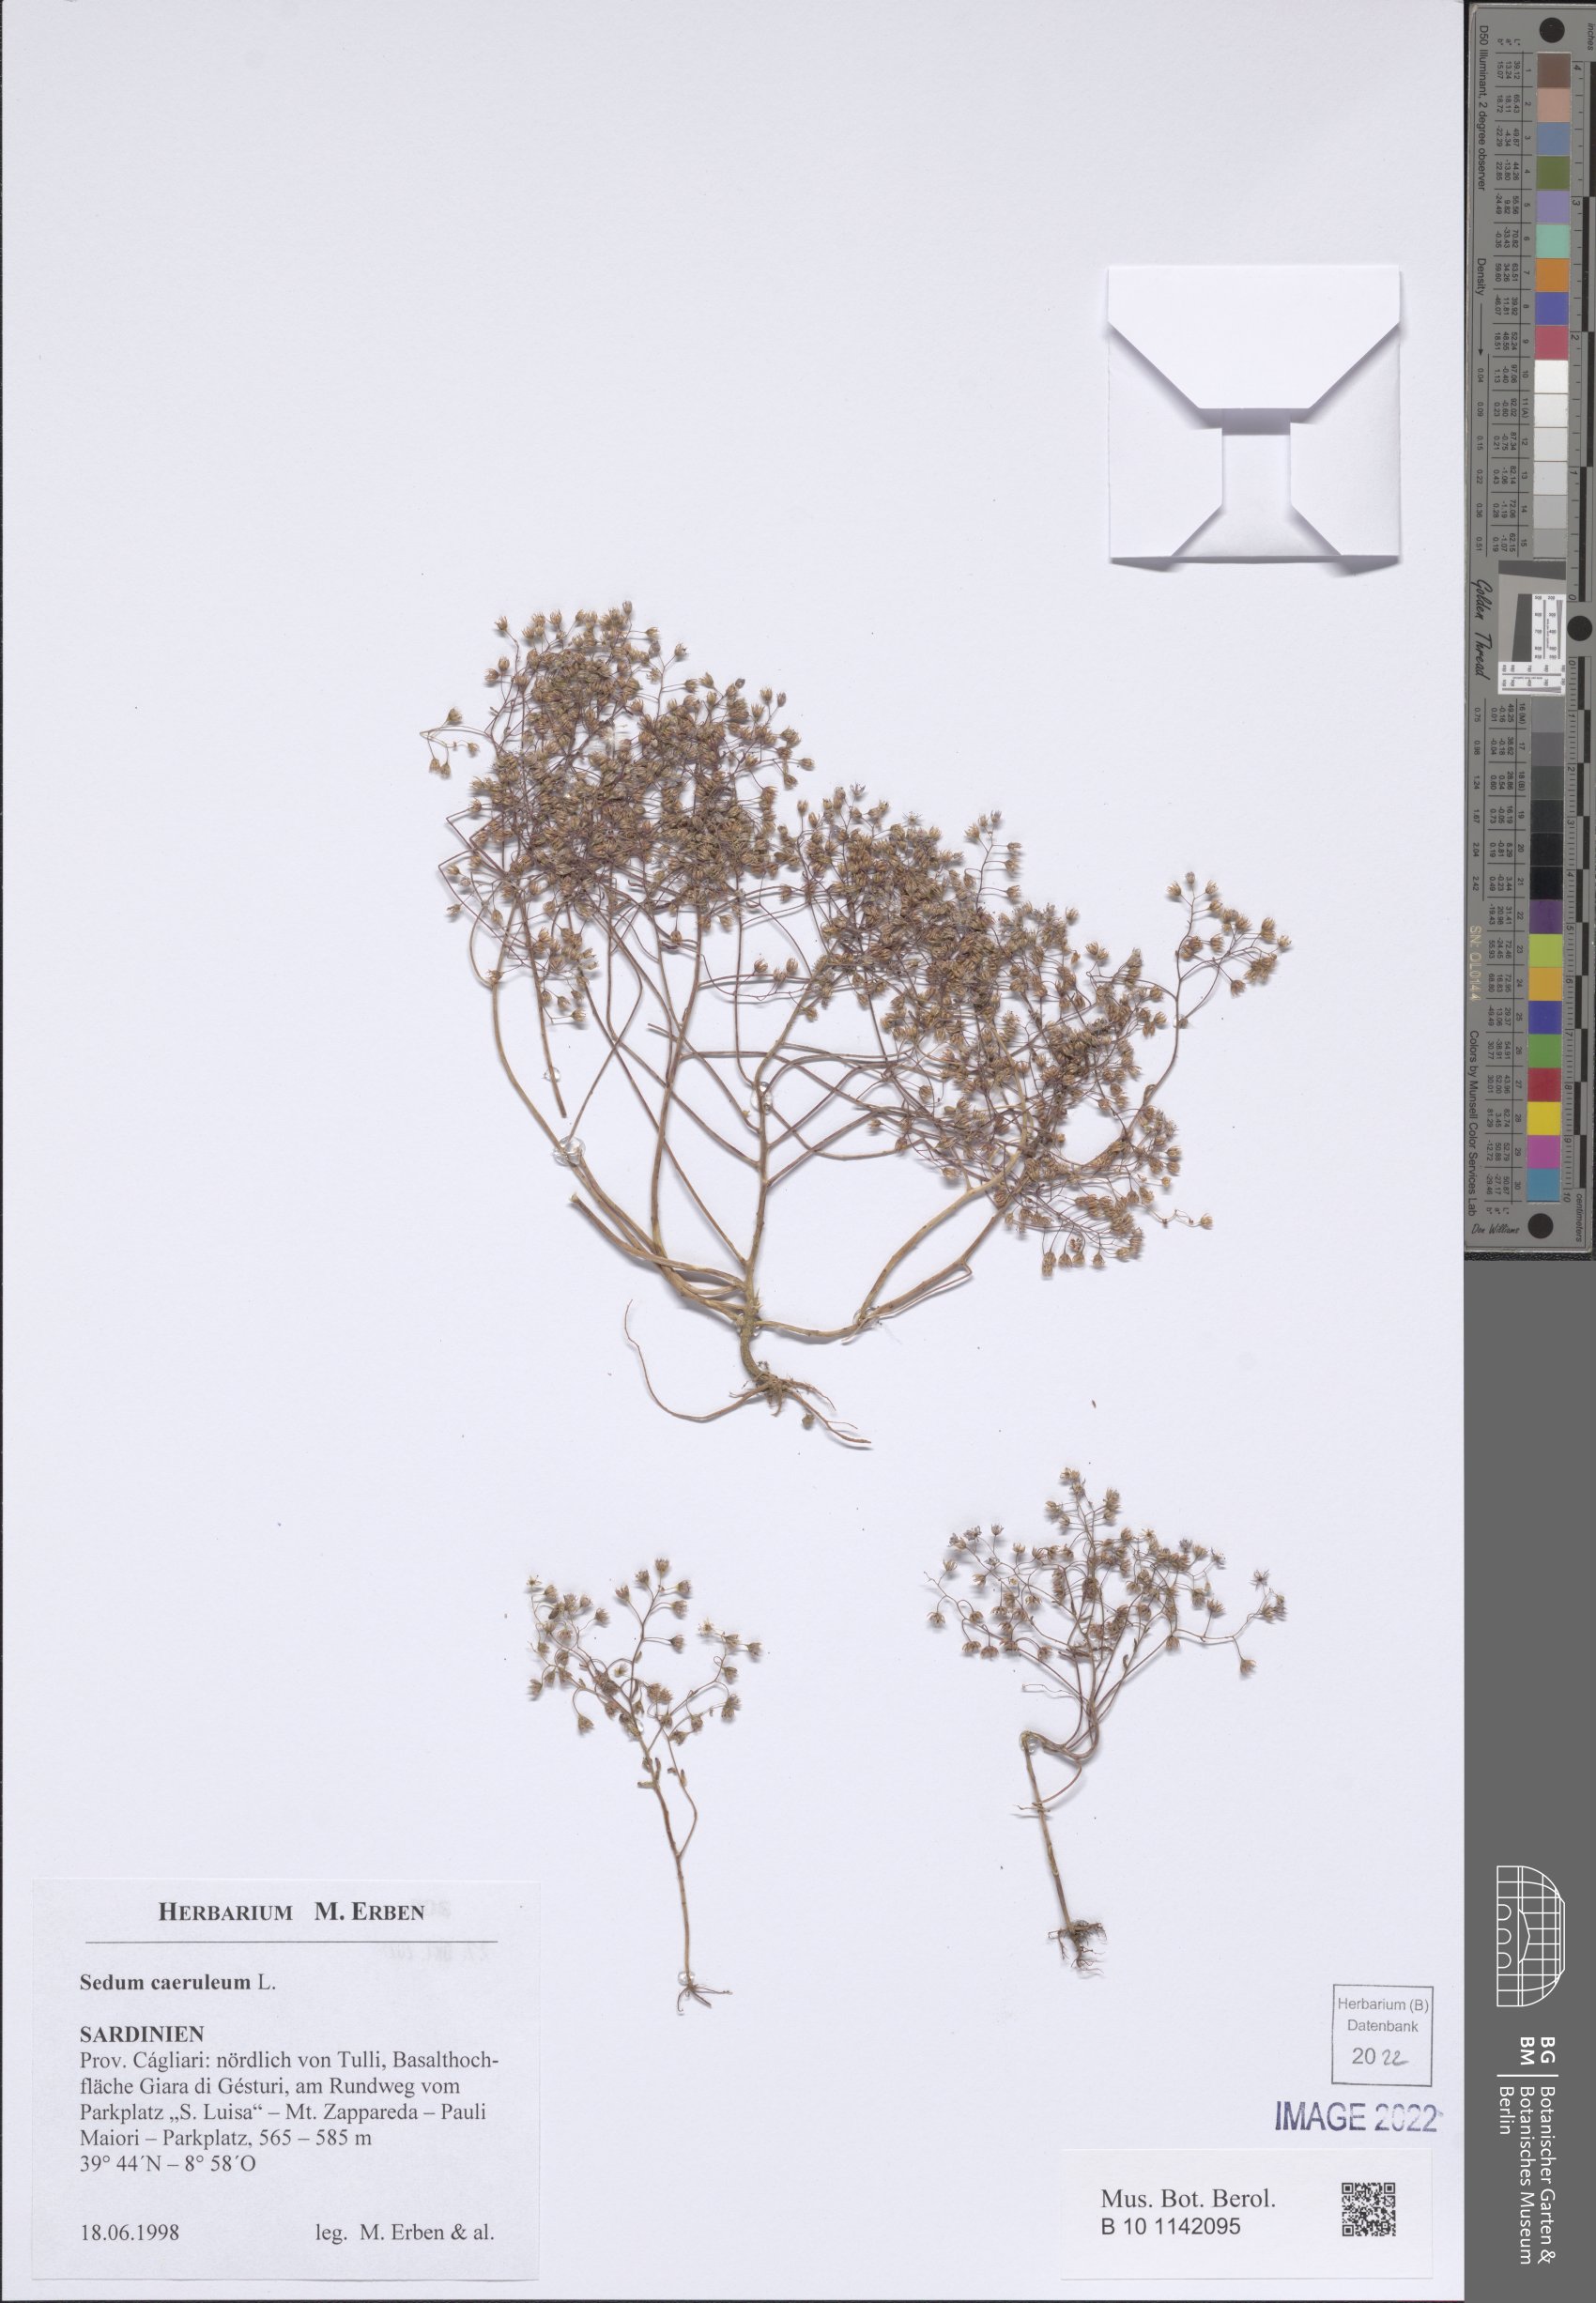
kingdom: Plantae
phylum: Tracheophyta
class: Magnoliopsida
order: Saxifragales
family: Crassulaceae
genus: Sedum
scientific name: Sedum caeruleum
